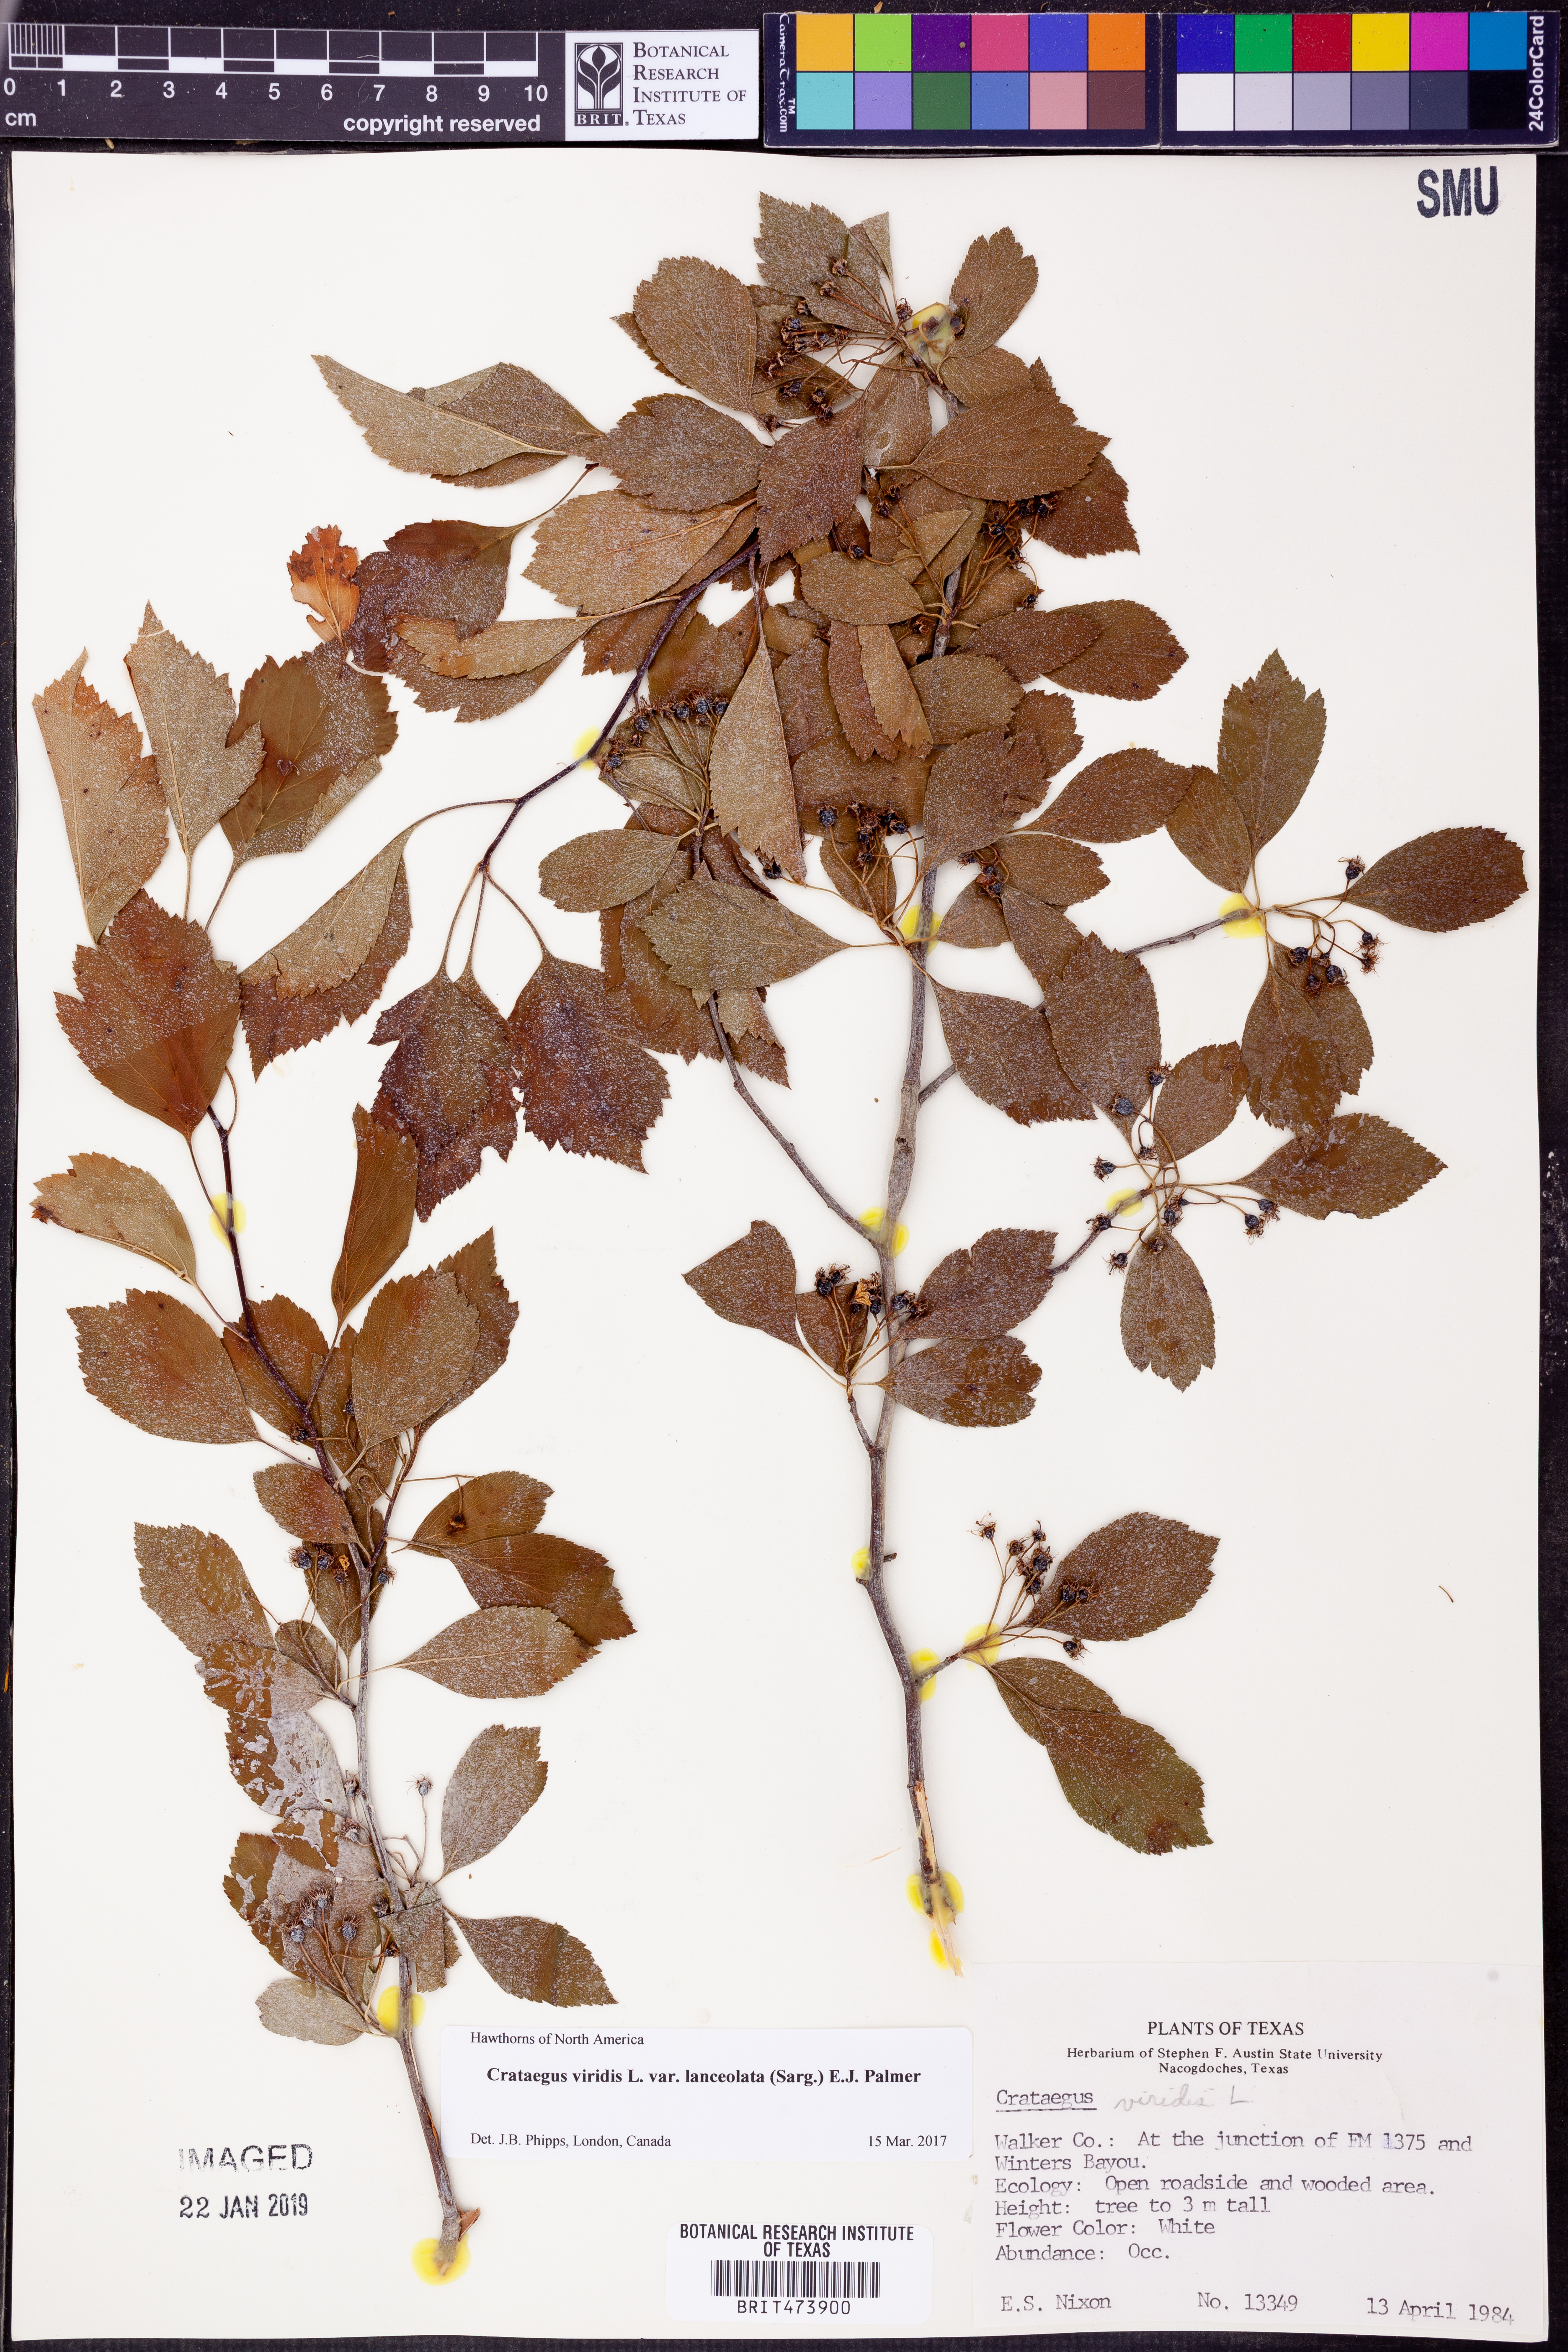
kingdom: Plantae
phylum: Tracheophyta
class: Magnoliopsida
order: Rosales
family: Rosaceae
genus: Crataegus
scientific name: Crataegus viridis
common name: Southernthorn
